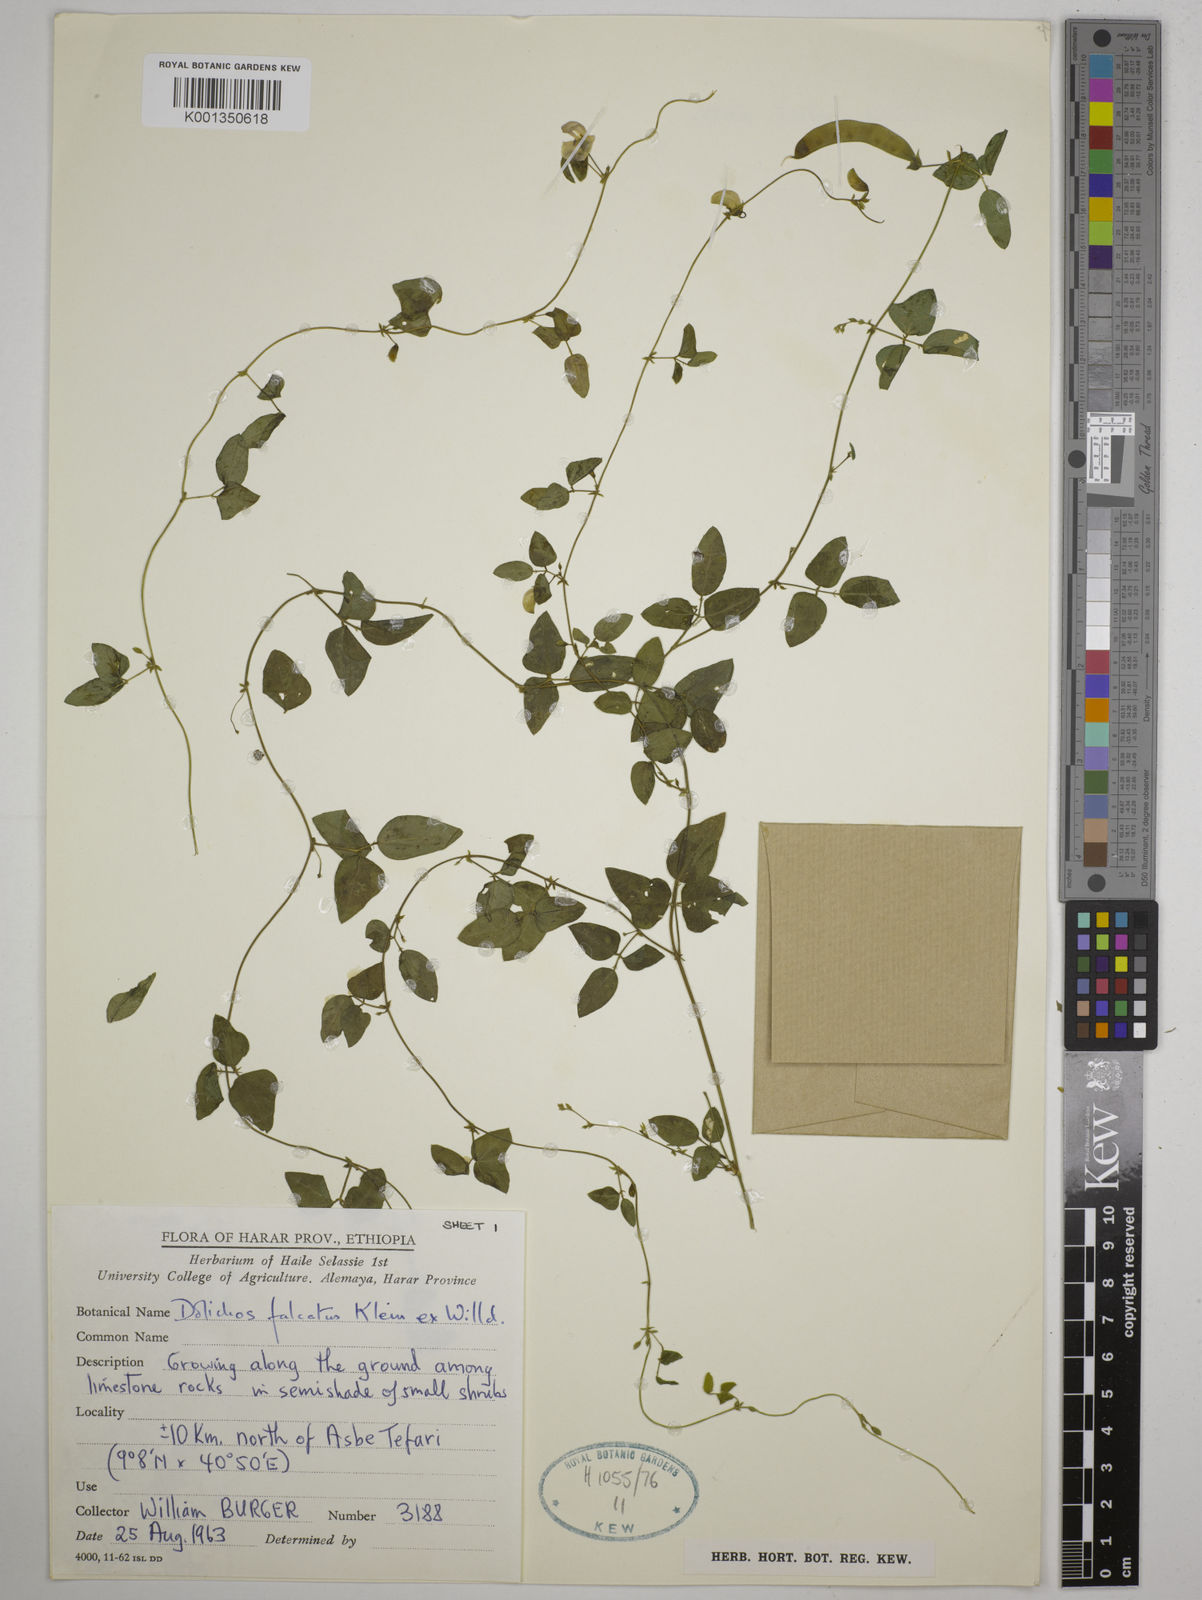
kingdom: Plantae
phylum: Tracheophyta
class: Magnoliopsida
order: Fabales
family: Fabaceae
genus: Dolichos
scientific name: Dolichos trilobus
